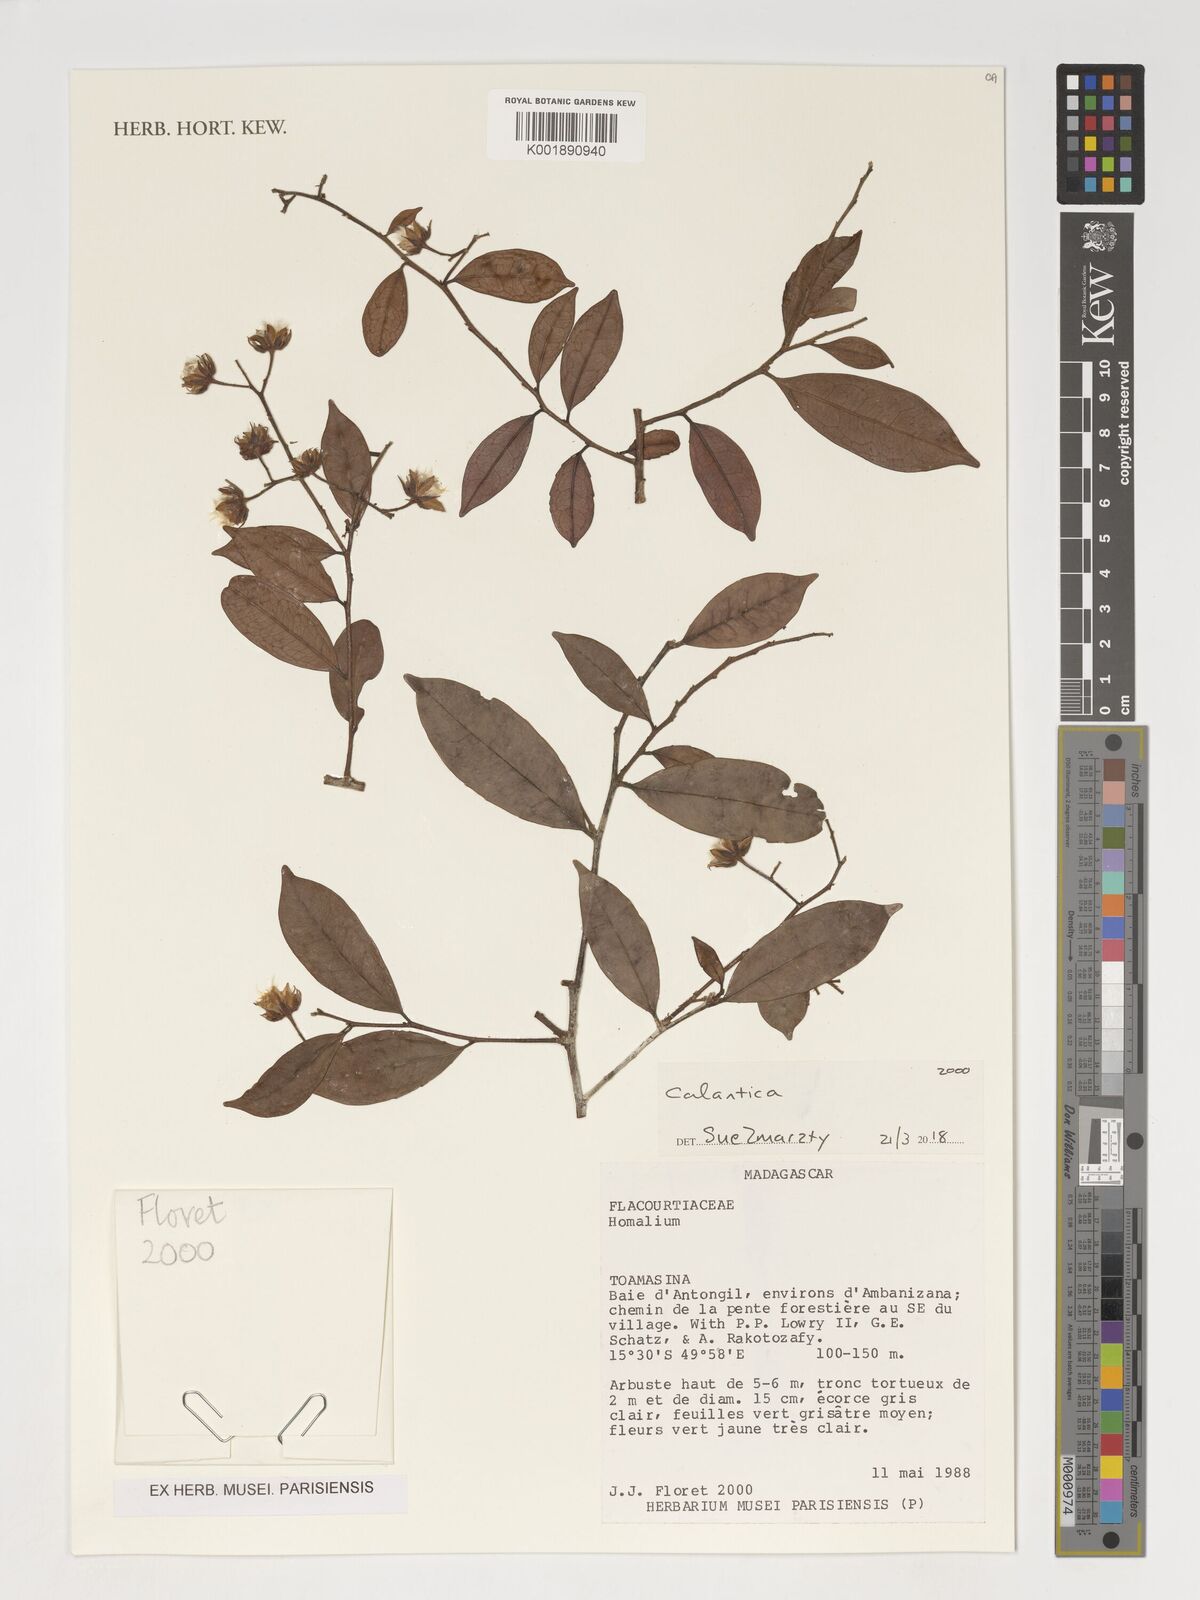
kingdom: Plantae
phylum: Tracheophyta
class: Magnoliopsida
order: Malpighiales
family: Salicaceae
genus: Calantica
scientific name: Calantica
